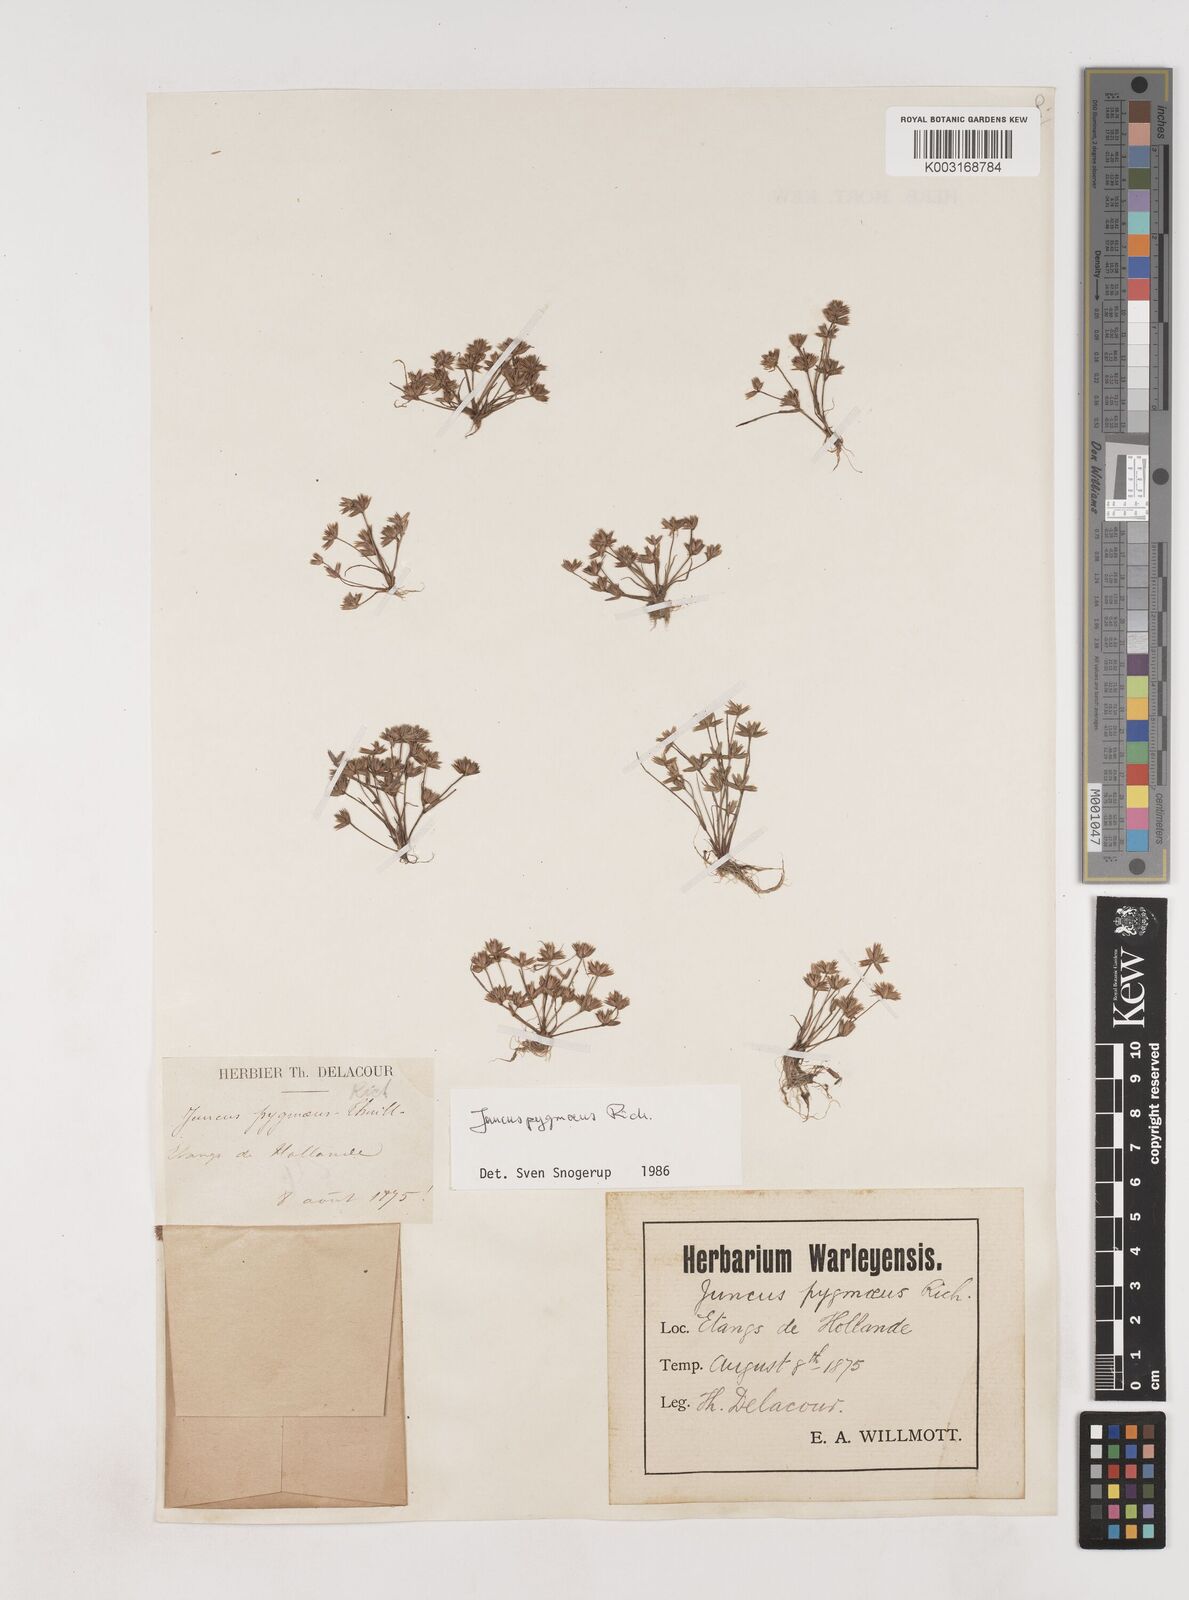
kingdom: Plantae
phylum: Tracheophyta
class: Liliopsida
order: Poales
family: Juncaceae
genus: Juncus
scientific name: Juncus pygmaeus
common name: Pigmy rush
